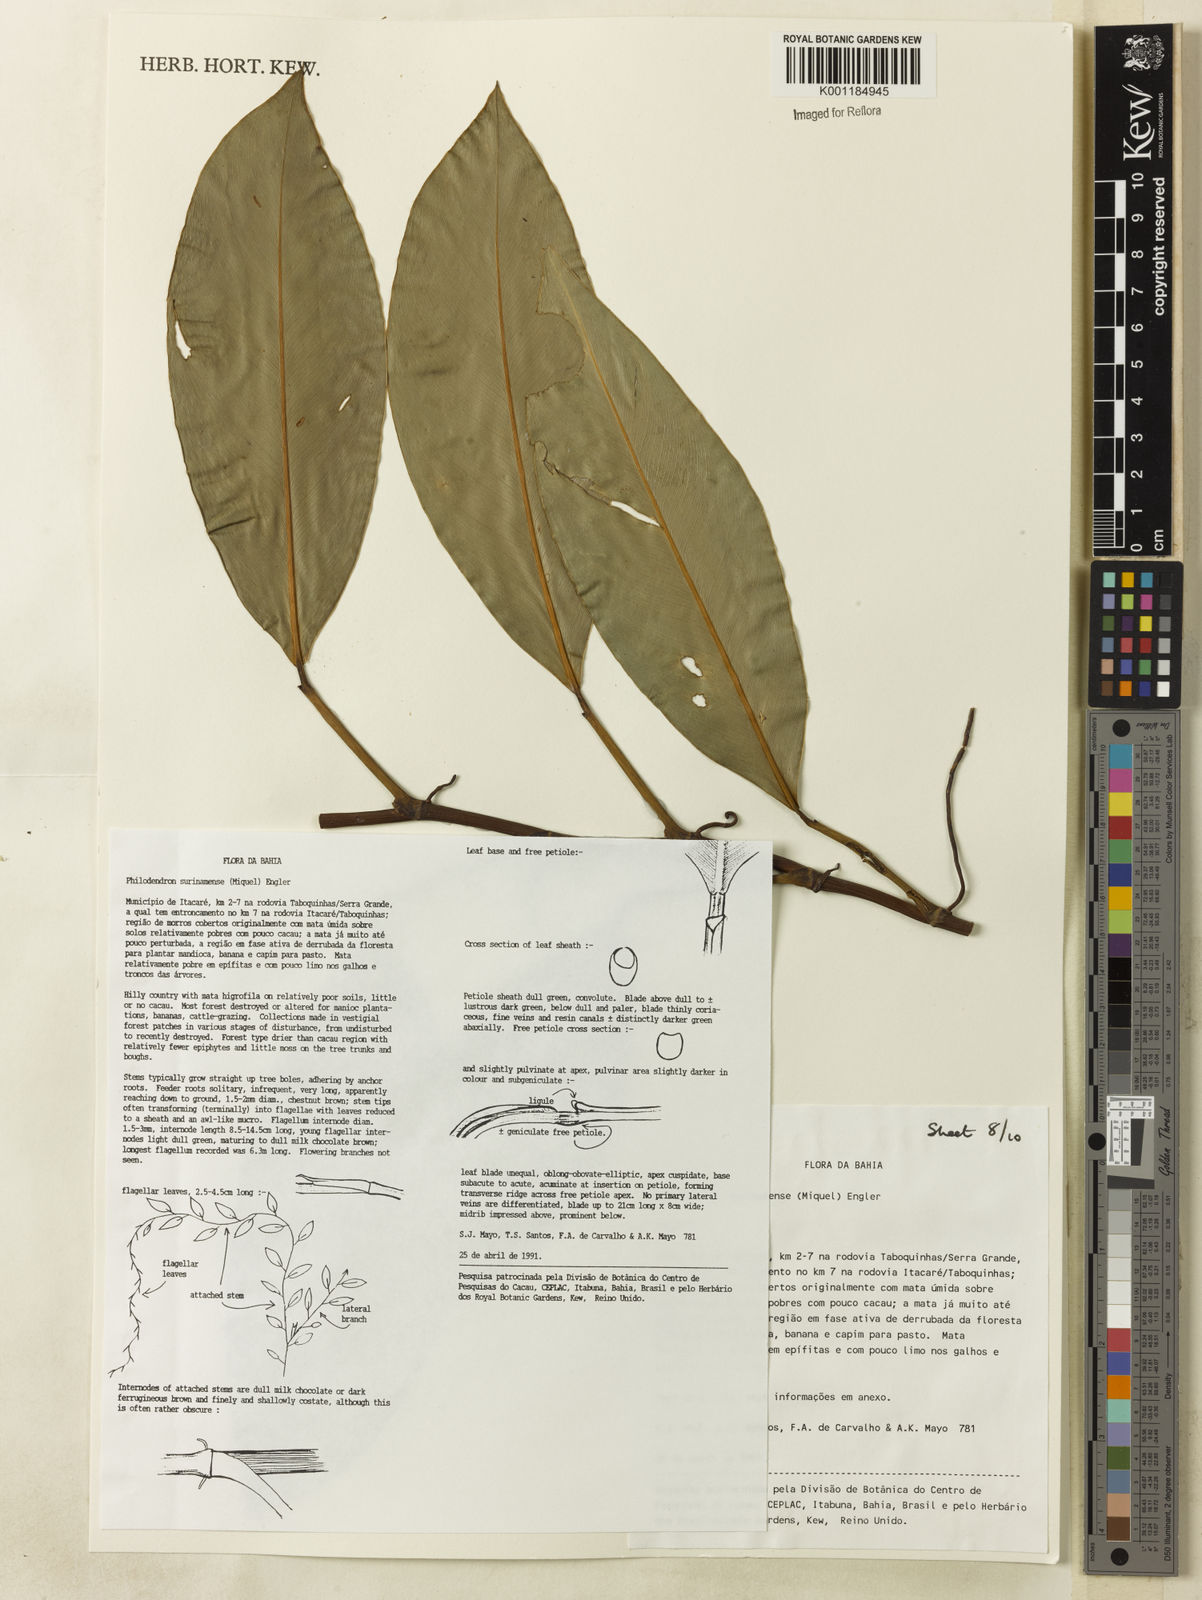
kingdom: Plantae
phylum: Tracheophyta
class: Liliopsida
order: Alismatales
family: Araceae
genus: Philodendron
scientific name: Philodendron surinamense
